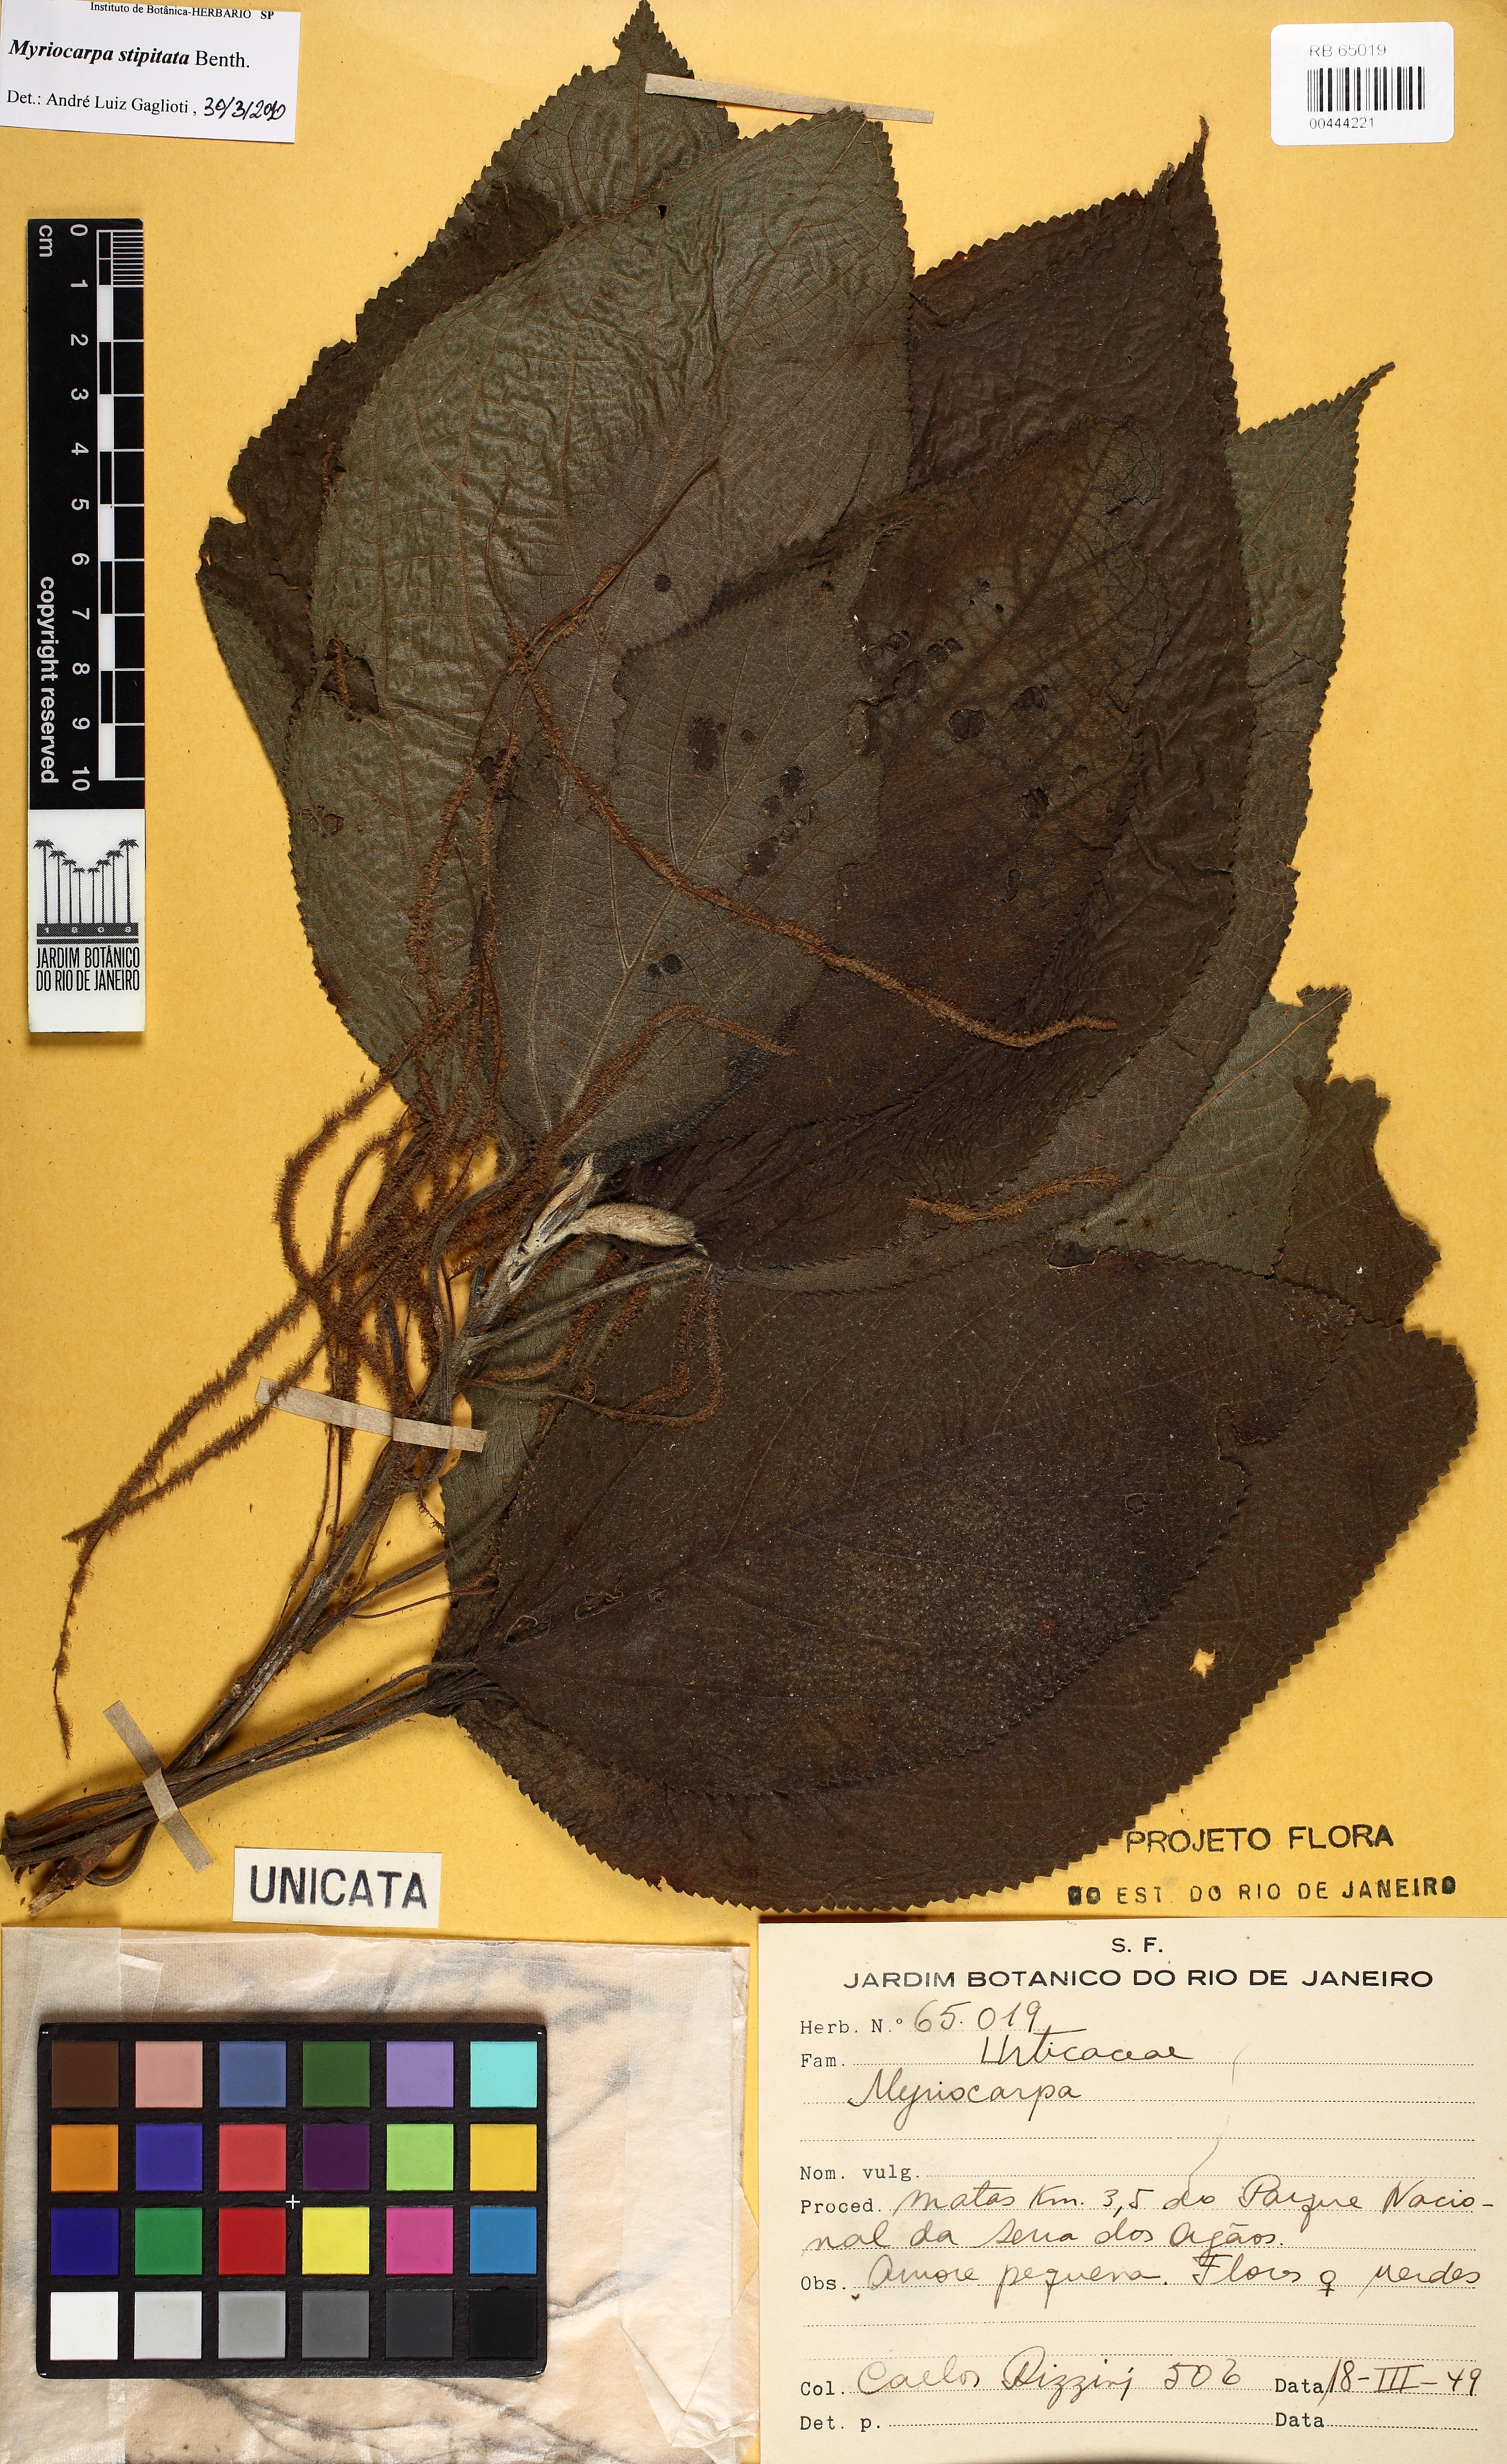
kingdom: Plantae
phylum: Tracheophyta
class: Magnoliopsida
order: Rosales
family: Urticaceae
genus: Myriocarpa
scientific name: Myriocarpa stipitata
